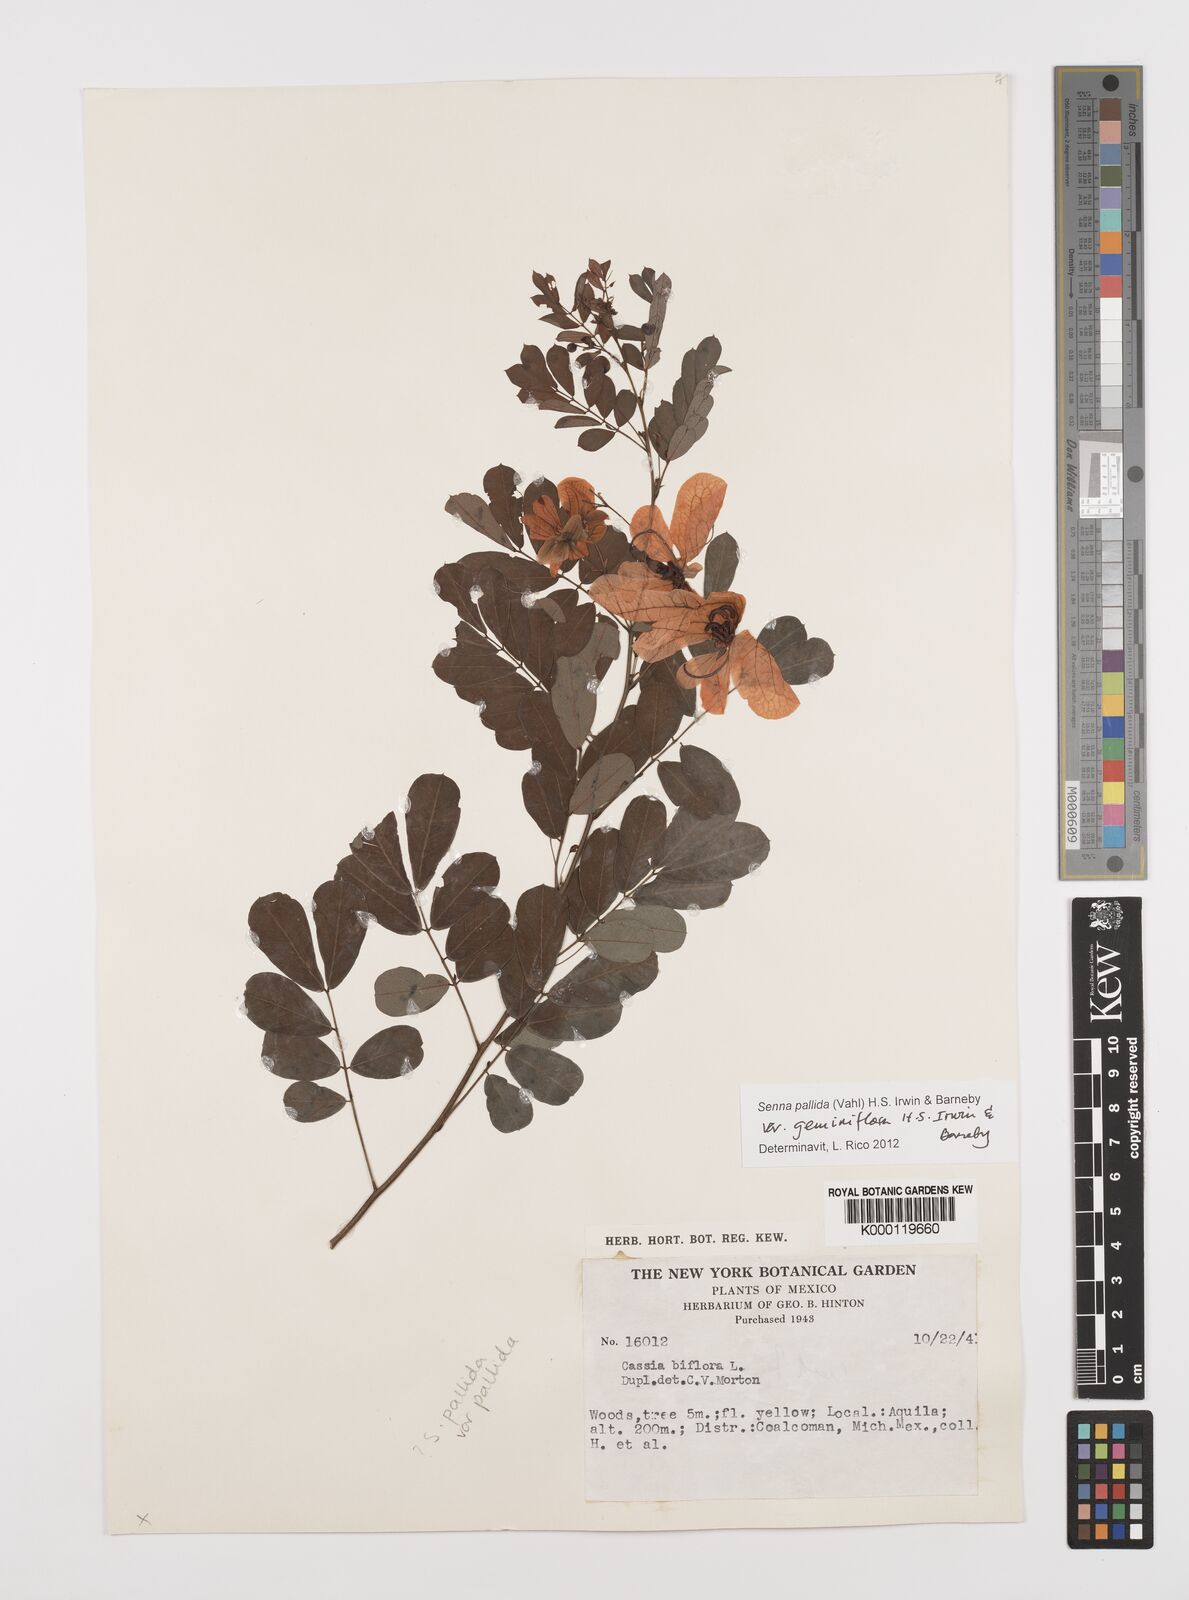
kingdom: Plantae
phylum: Tracheophyta
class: Magnoliopsida
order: Fabales
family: Fabaceae
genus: Senna
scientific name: Senna pallida
